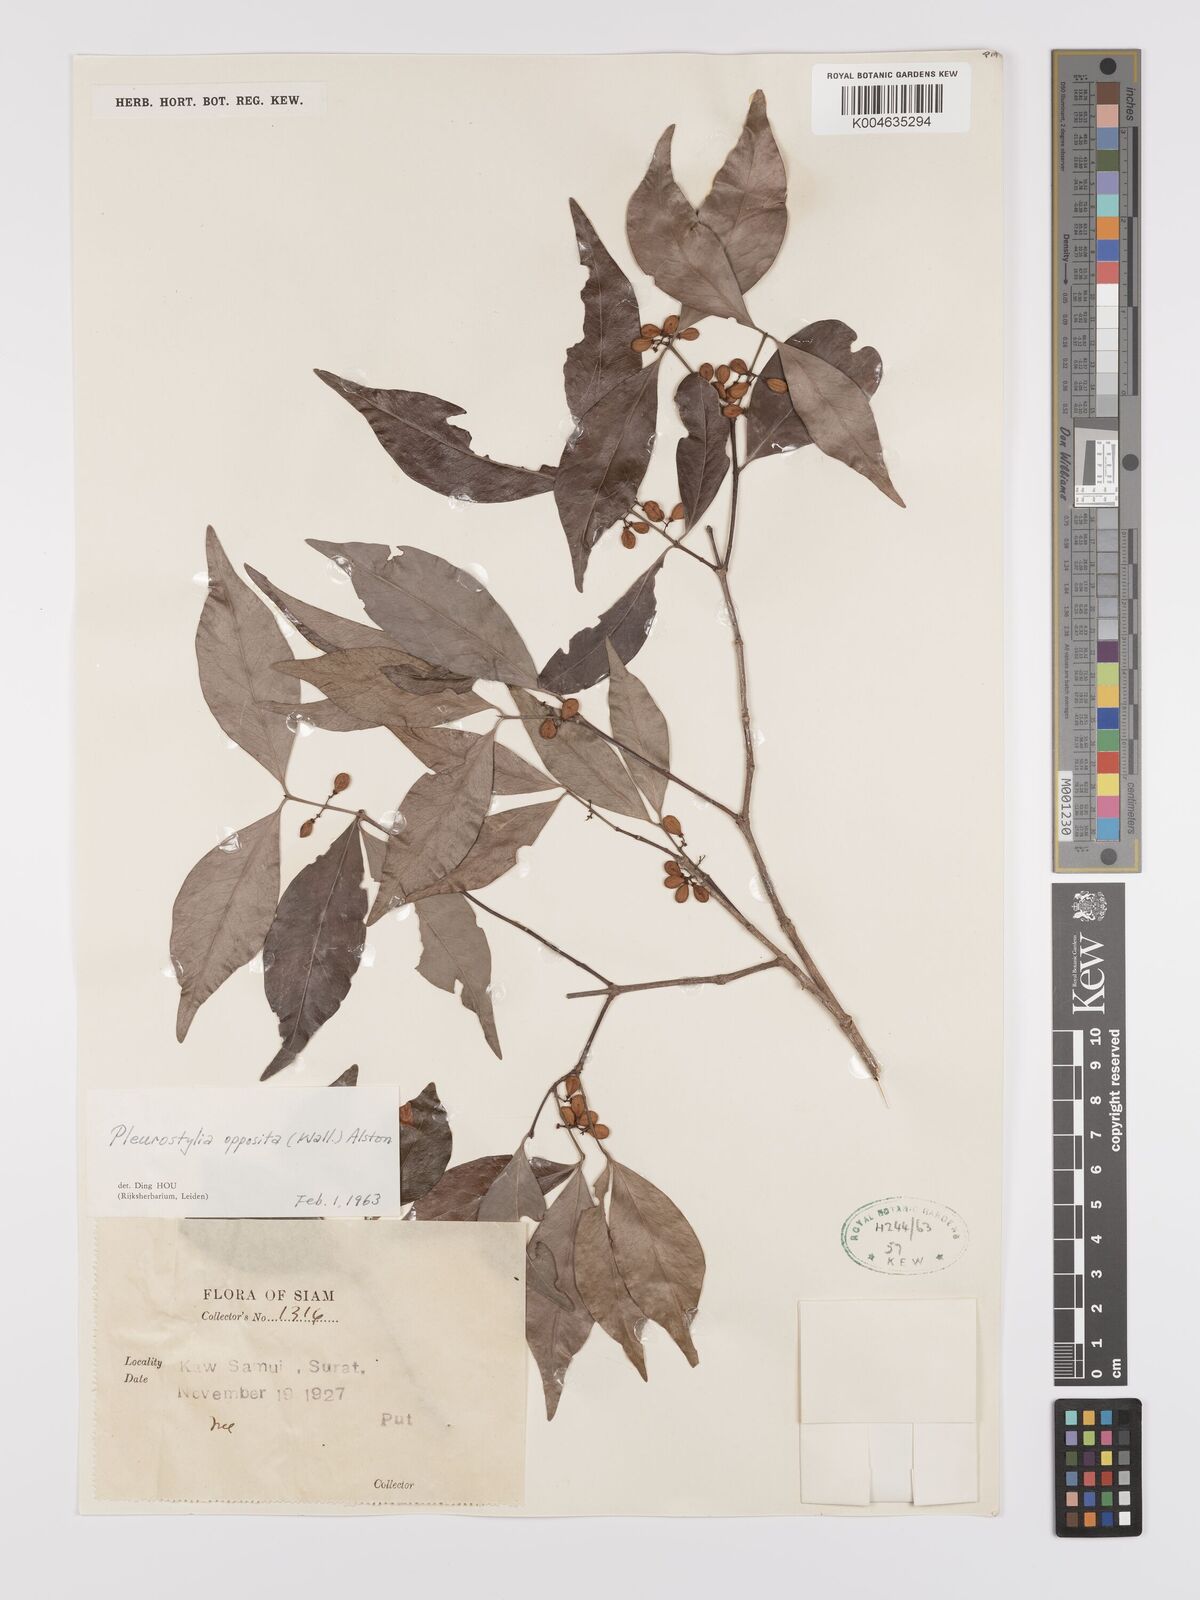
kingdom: Plantae
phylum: Tracheophyta
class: Magnoliopsida
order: Celastrales
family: Celastraceae
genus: Pleurostylia
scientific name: Pleurostylia opposita
